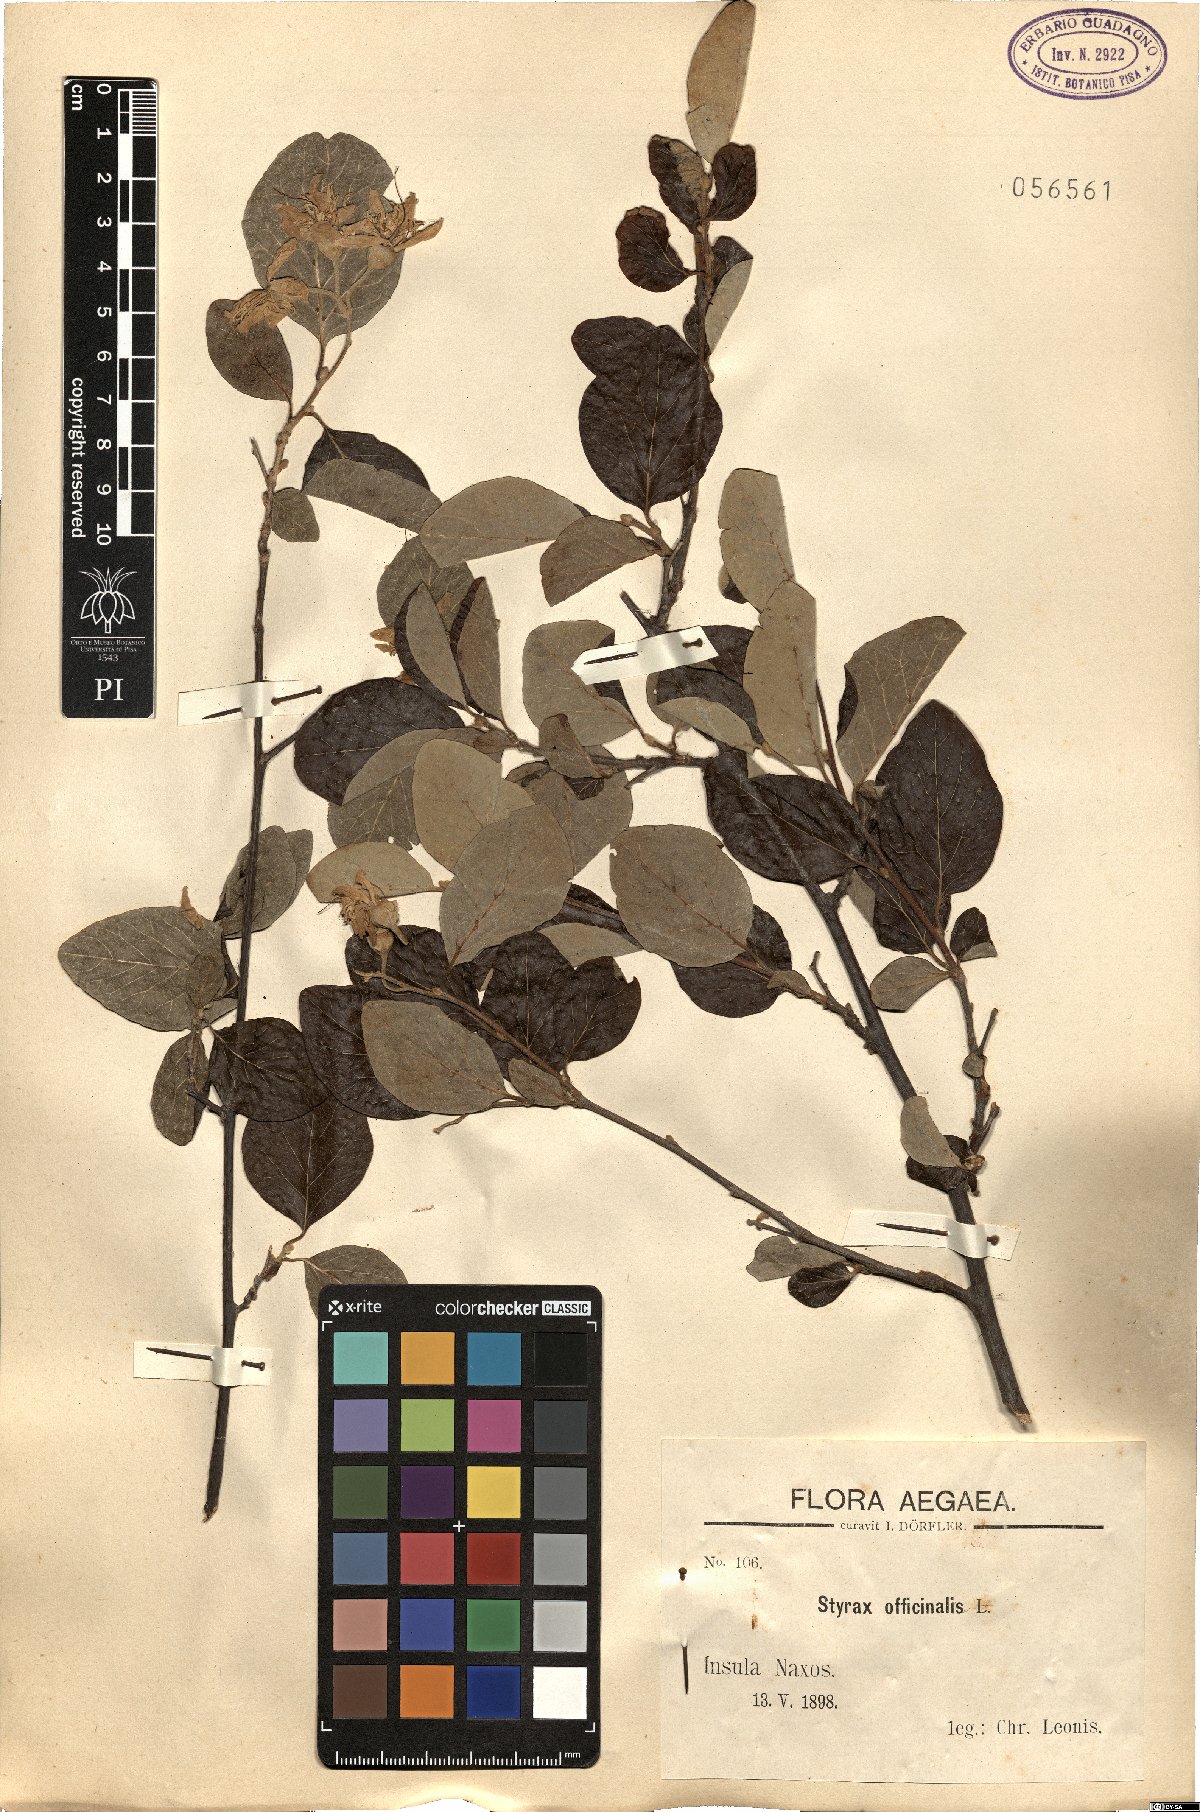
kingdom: Plantae
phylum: Tracheophyta
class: Magnoliopsida
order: Ericales
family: Styracaceae
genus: Styrax
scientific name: Styrax officinalis
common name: Storax
